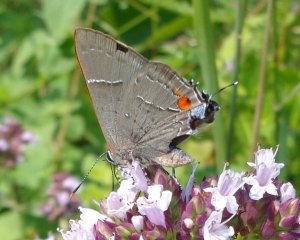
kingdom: Animalia
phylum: Arthropoda
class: Insecta
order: Lepidoptera
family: Lycaenidae
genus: Parrhasius
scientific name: Parrhasius m-album
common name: White-m Hairstreak
